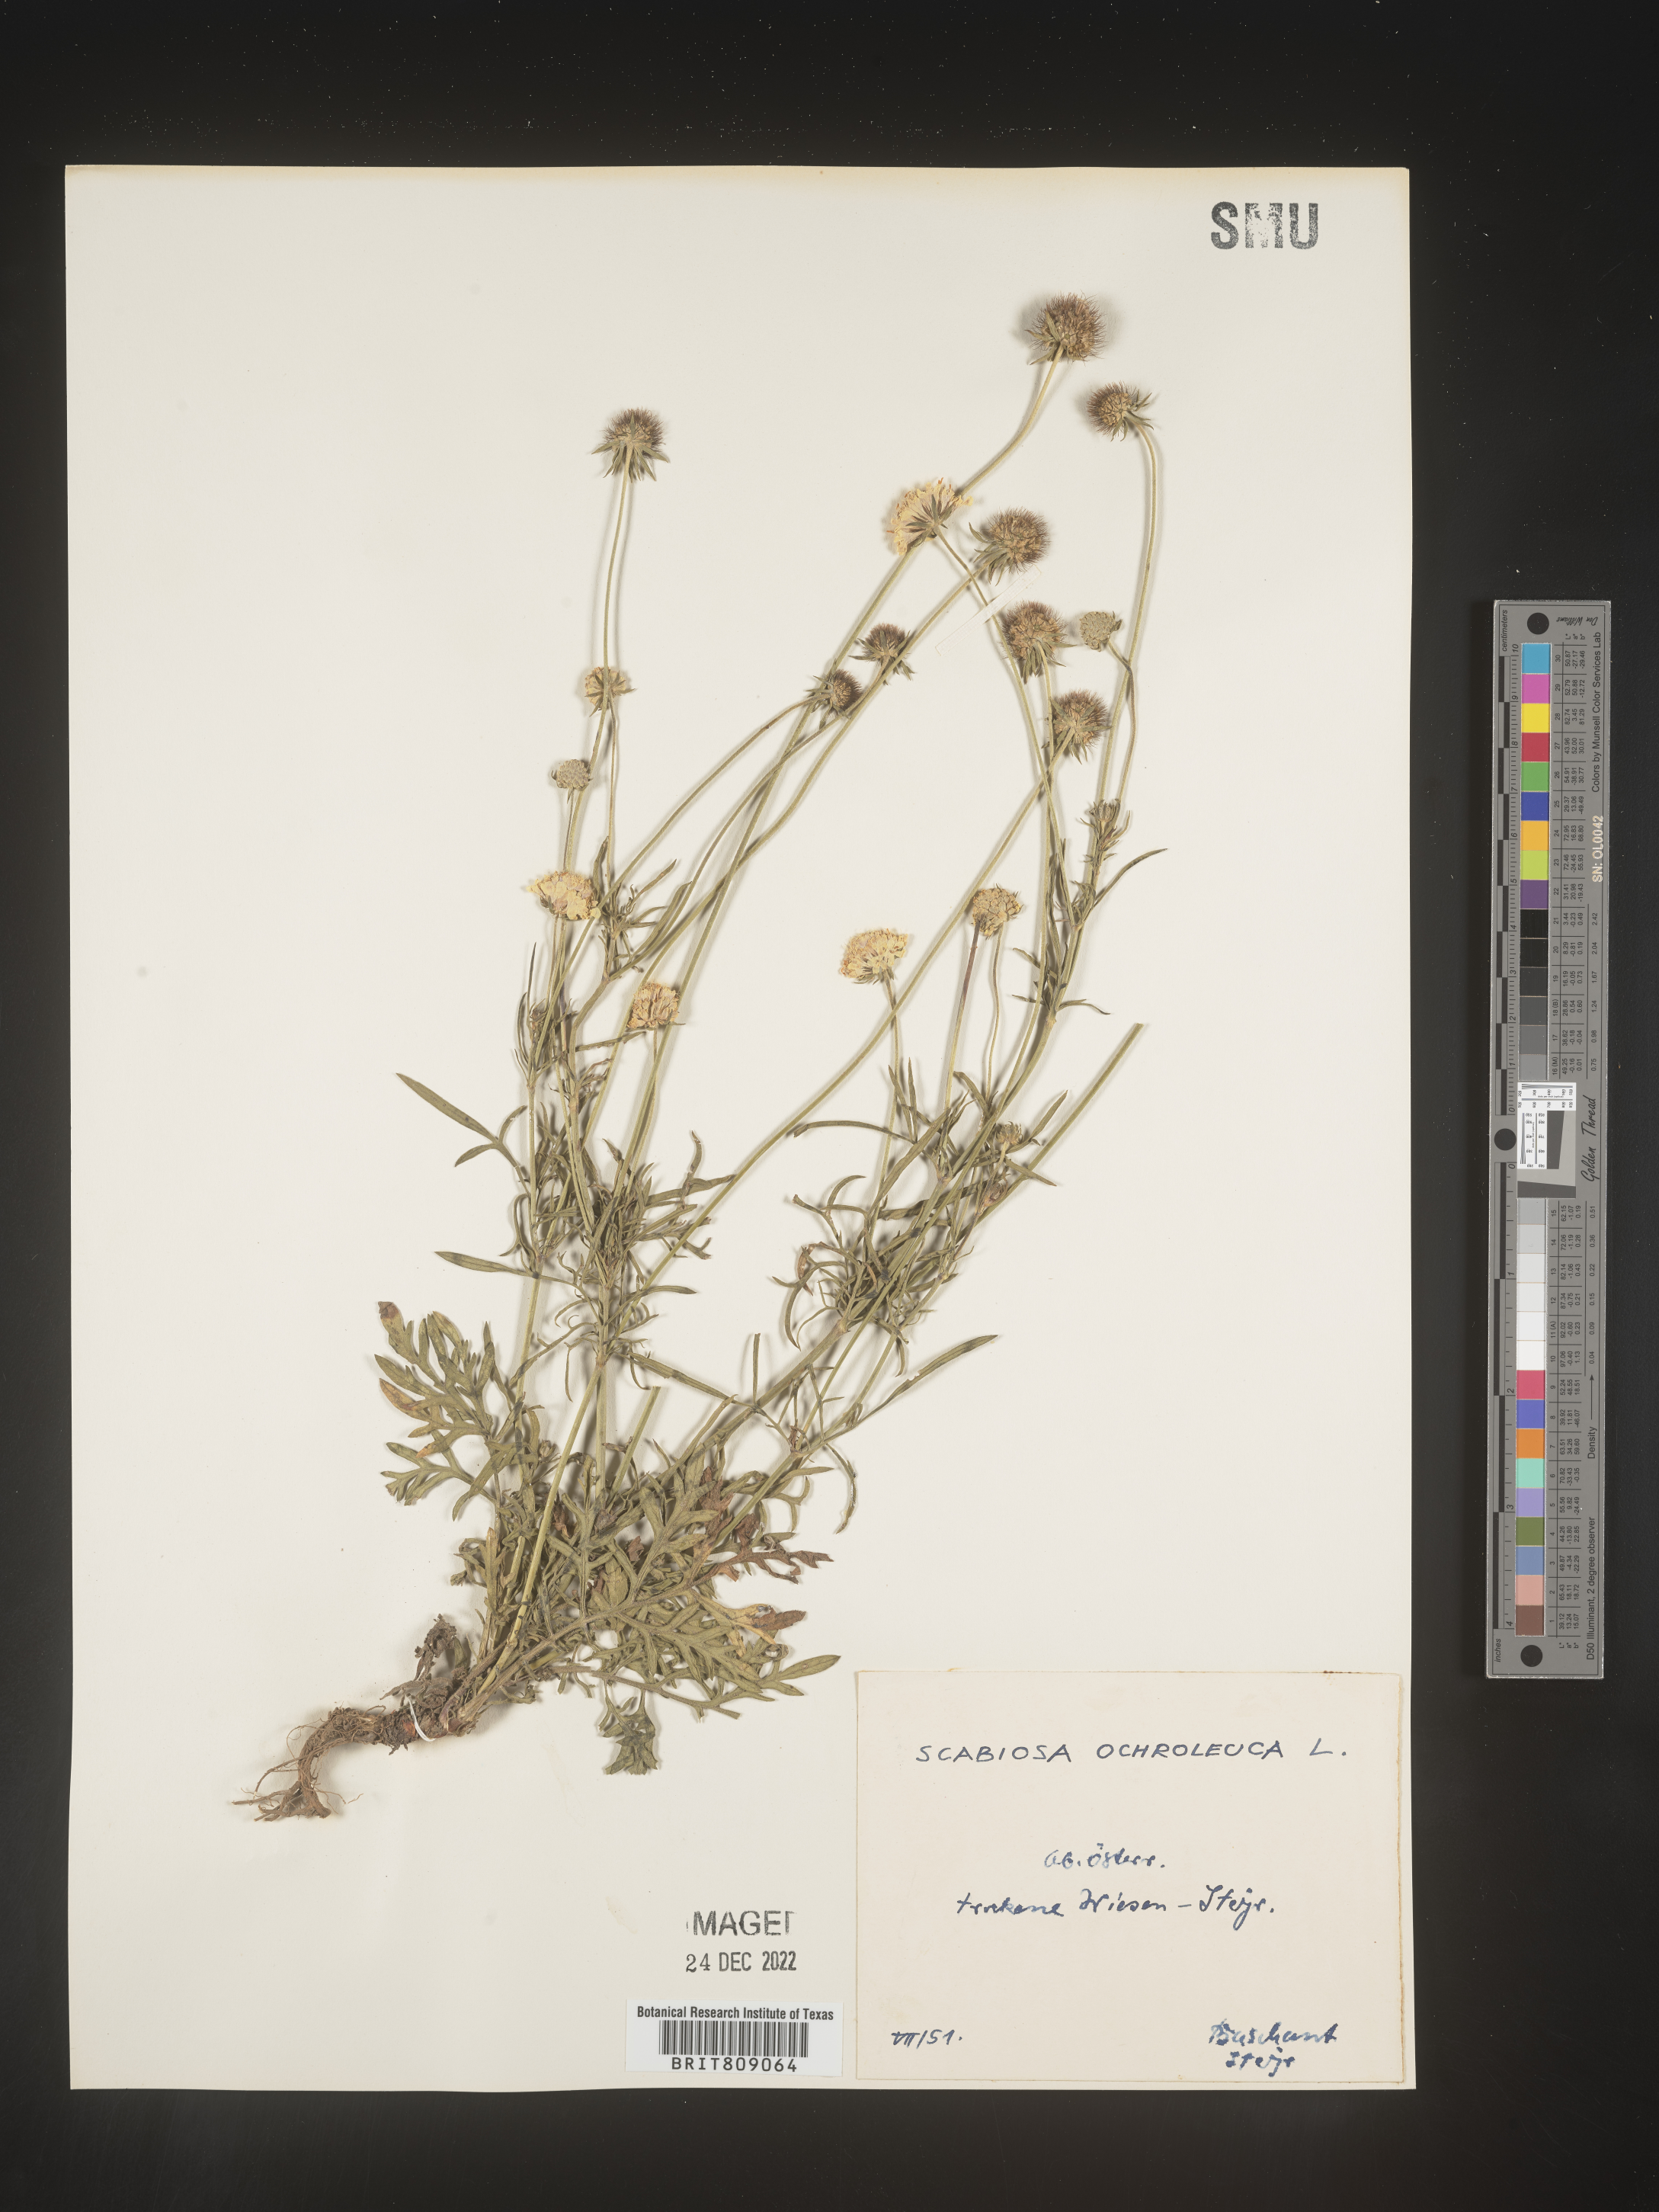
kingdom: Plantae
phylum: Tracheophyta
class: Magnoliopsida
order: Dipsacales
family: Caprifoliaceae
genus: Scabiosa
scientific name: Scabiosa
